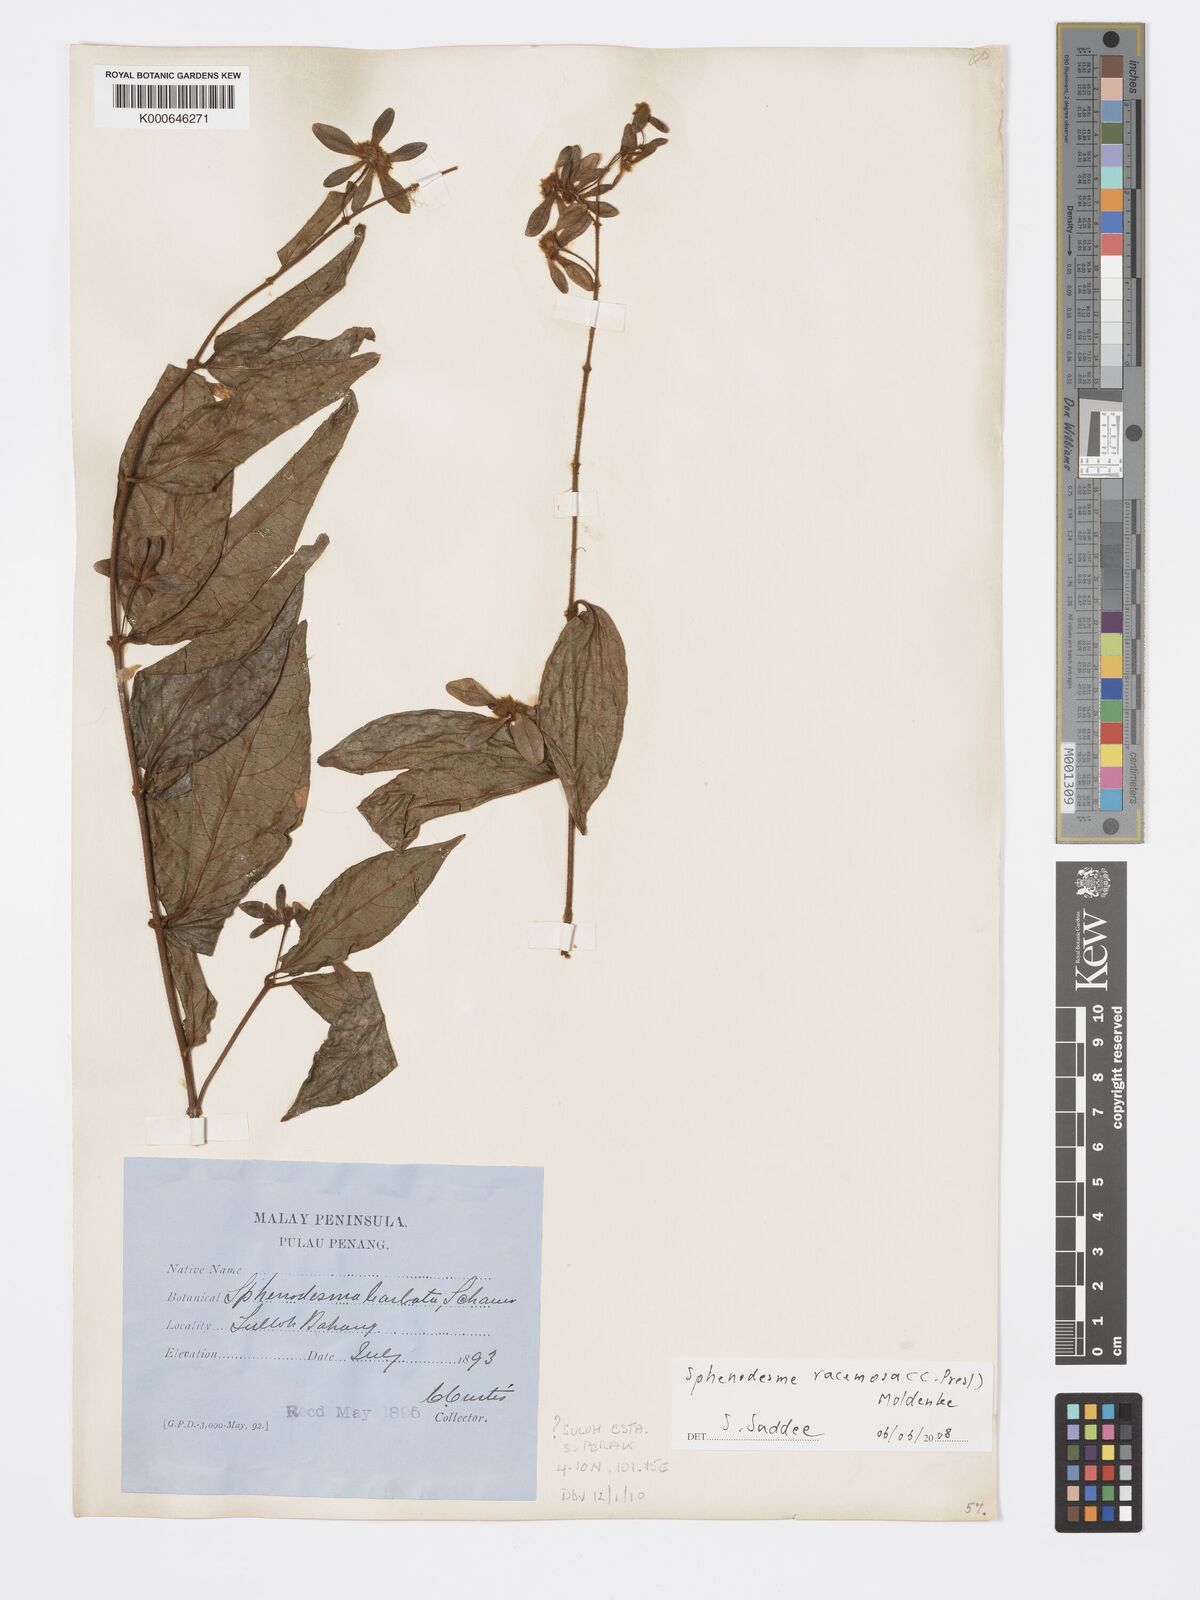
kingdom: Plantae
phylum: Tracheophyta
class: Magnoliopsida
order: Lamiales
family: Lamiaceae
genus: Sphenodesme
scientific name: Sphenodesme racemosa
